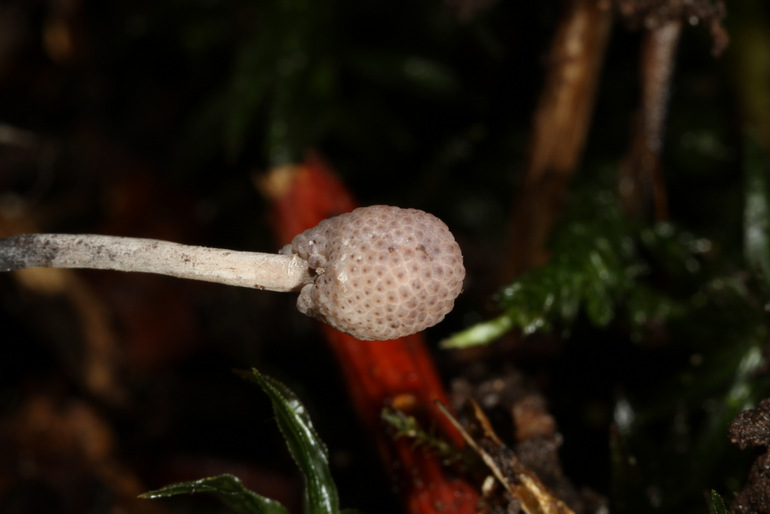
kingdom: Fungi
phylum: Ascomycota
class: Sordariomycetes
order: Hypocreales
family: Ophiocordycipitaceae
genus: Ophiocordyceps
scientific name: Ophiocordyceps entomorrhiza
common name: grå snyltekølle
